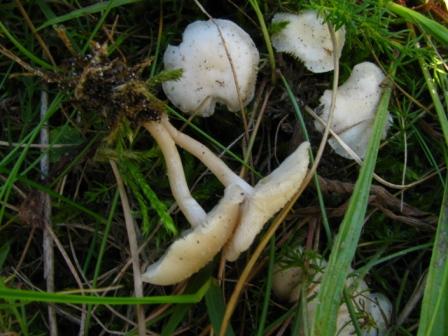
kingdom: Fungi
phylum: Basidiomycota
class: Agaricomycetes
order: Agaricales
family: Tricholomataceae
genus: Clitocybe
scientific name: Clitocybe agrestis
